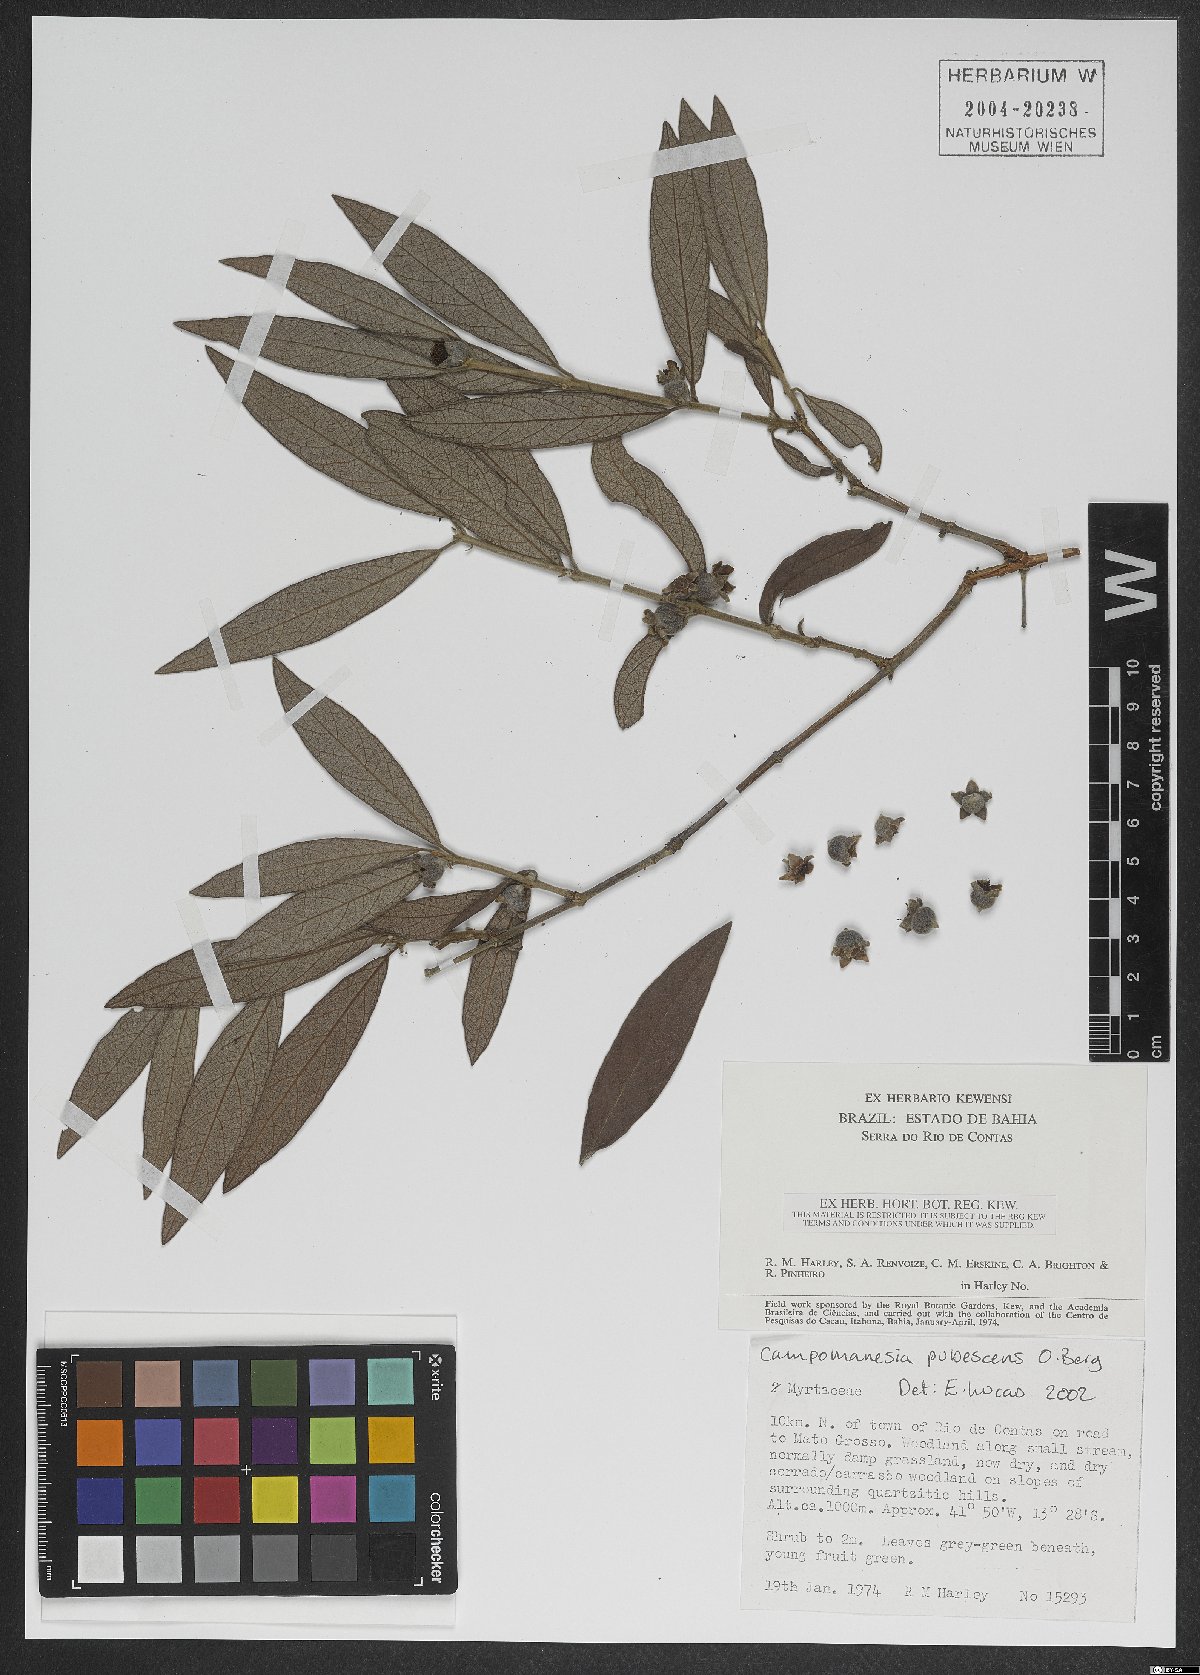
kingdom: Plantae
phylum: Tracheophyta
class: Magnoliopsida
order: Myrtales
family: Myrtaceae
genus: Campomanesia
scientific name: Campomanesia pubescens
